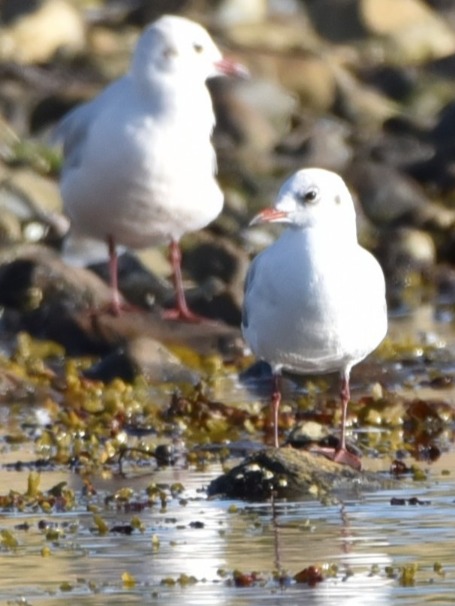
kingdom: Animalia
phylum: Chordata
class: Aves
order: Charadriiformes
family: Laridae
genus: Chroicocephalus
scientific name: Chroicocephalus ridibundus
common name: Hættemåge
